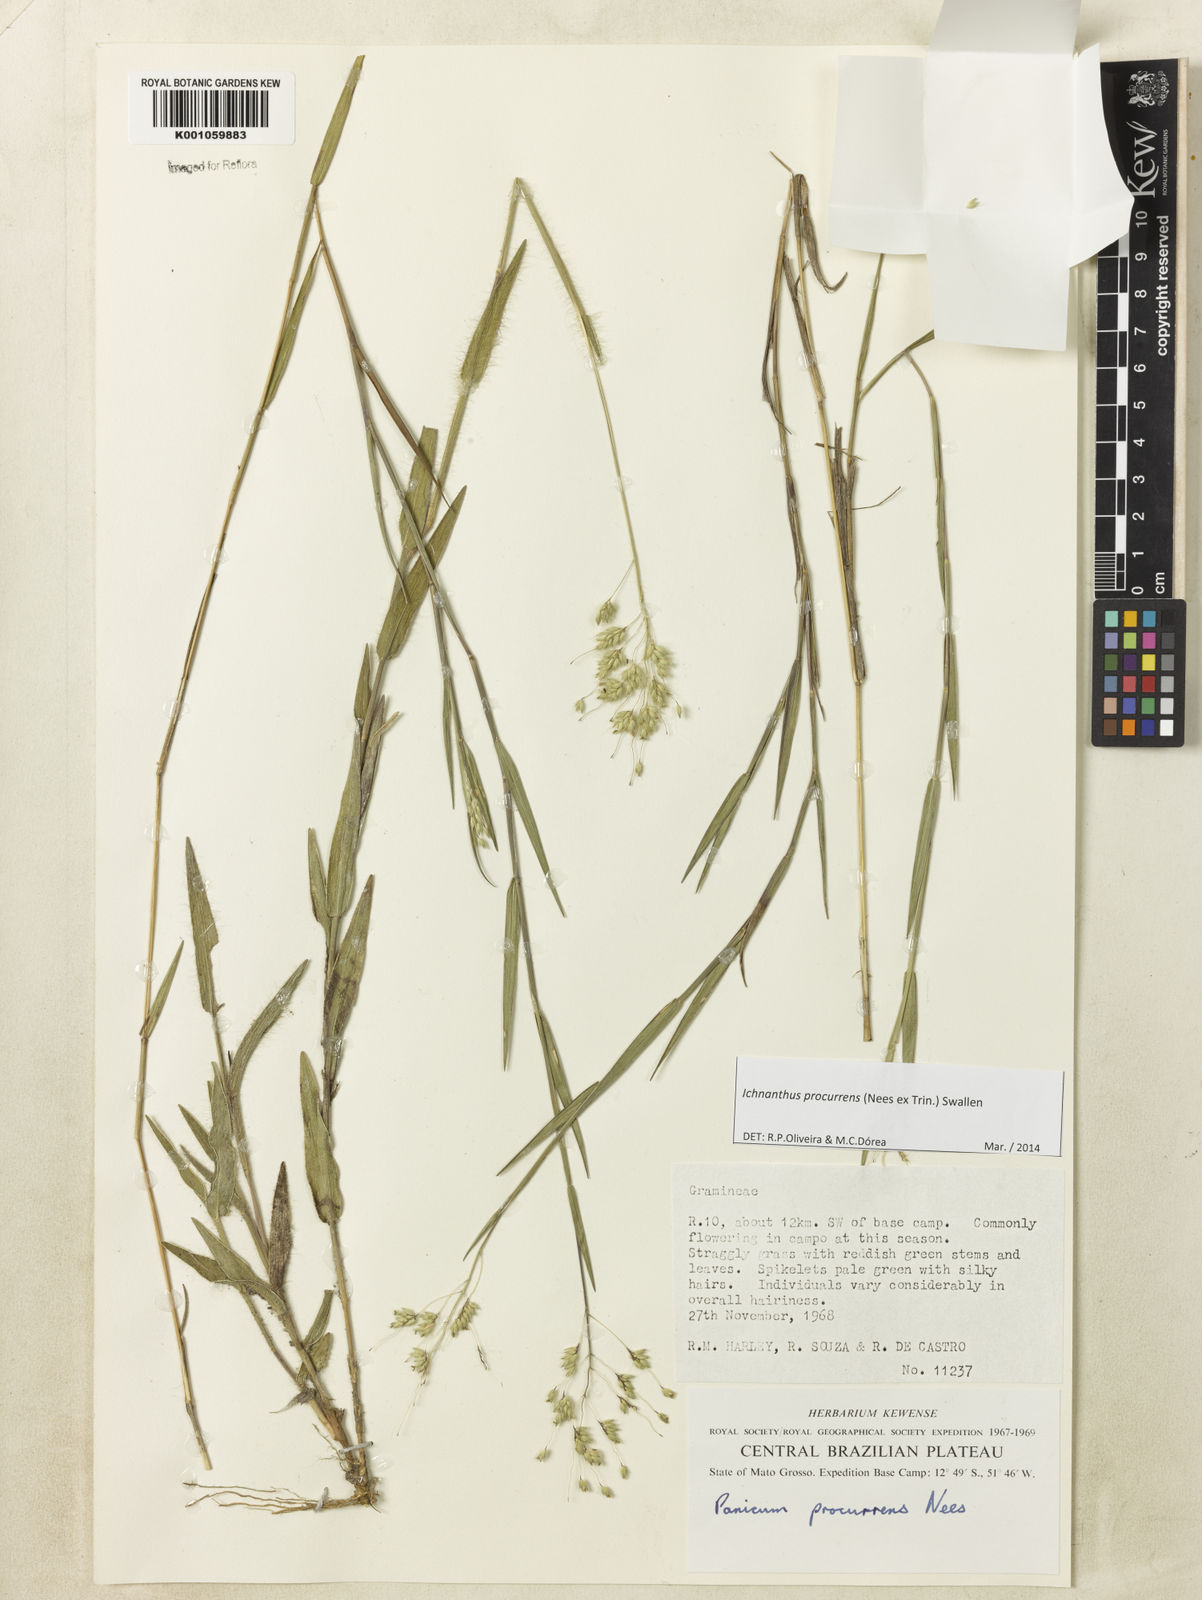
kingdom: Plantae
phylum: Tracheophyta
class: Liliopsida
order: Poales
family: Poaceae
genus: Oedochloa
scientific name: Oedochloa procurrens
